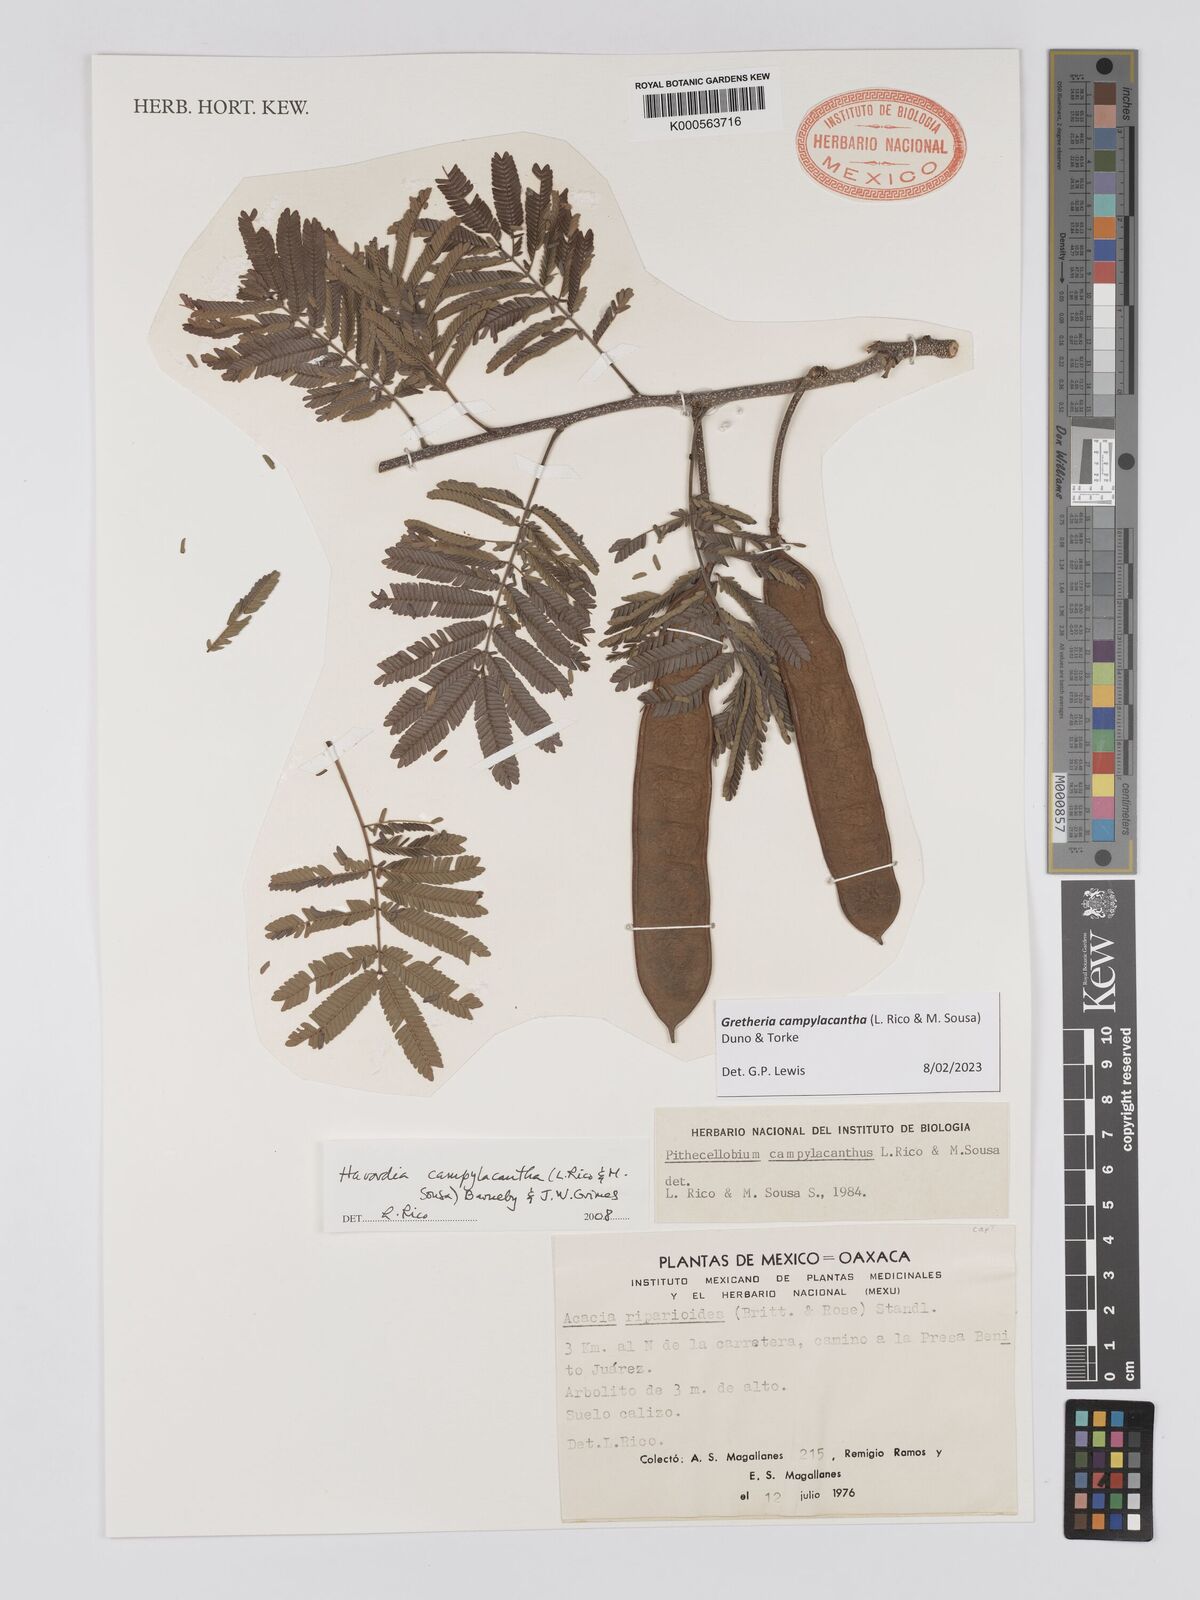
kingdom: Plantae
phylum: Tracheophyta
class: Magnoliopsida
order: Fabales
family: Fabaceae
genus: Havardia
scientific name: Havardia campylacantha
